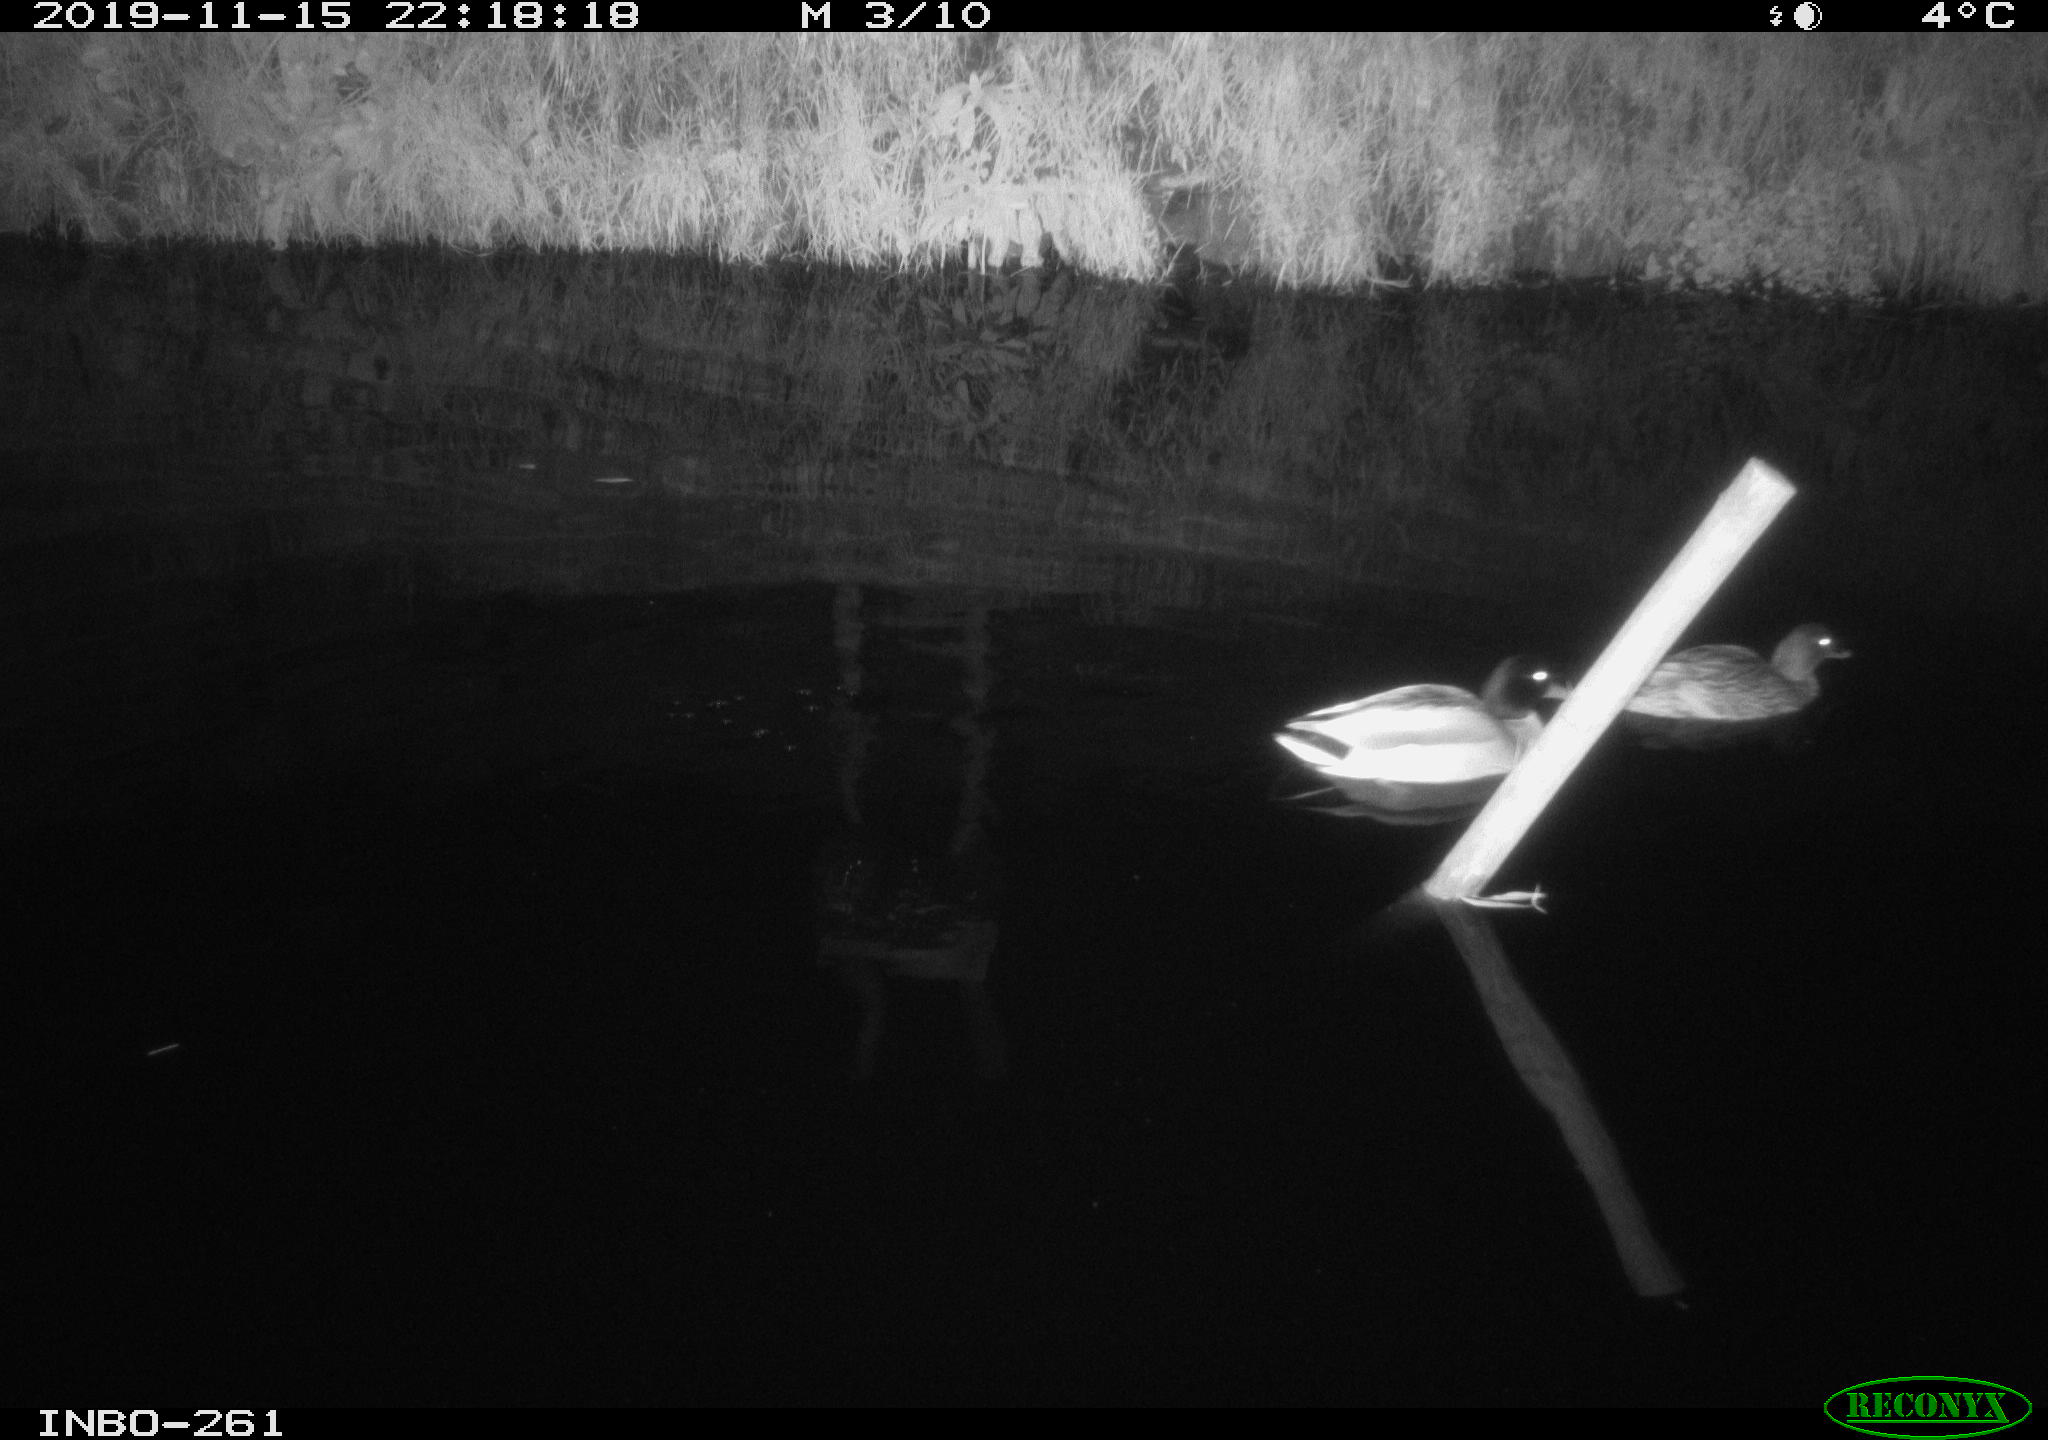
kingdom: Animalia
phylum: Chordata
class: Aves
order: Anseriformes
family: Anatidae
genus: Anas
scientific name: Anas platyrhynchos
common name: Mallard
